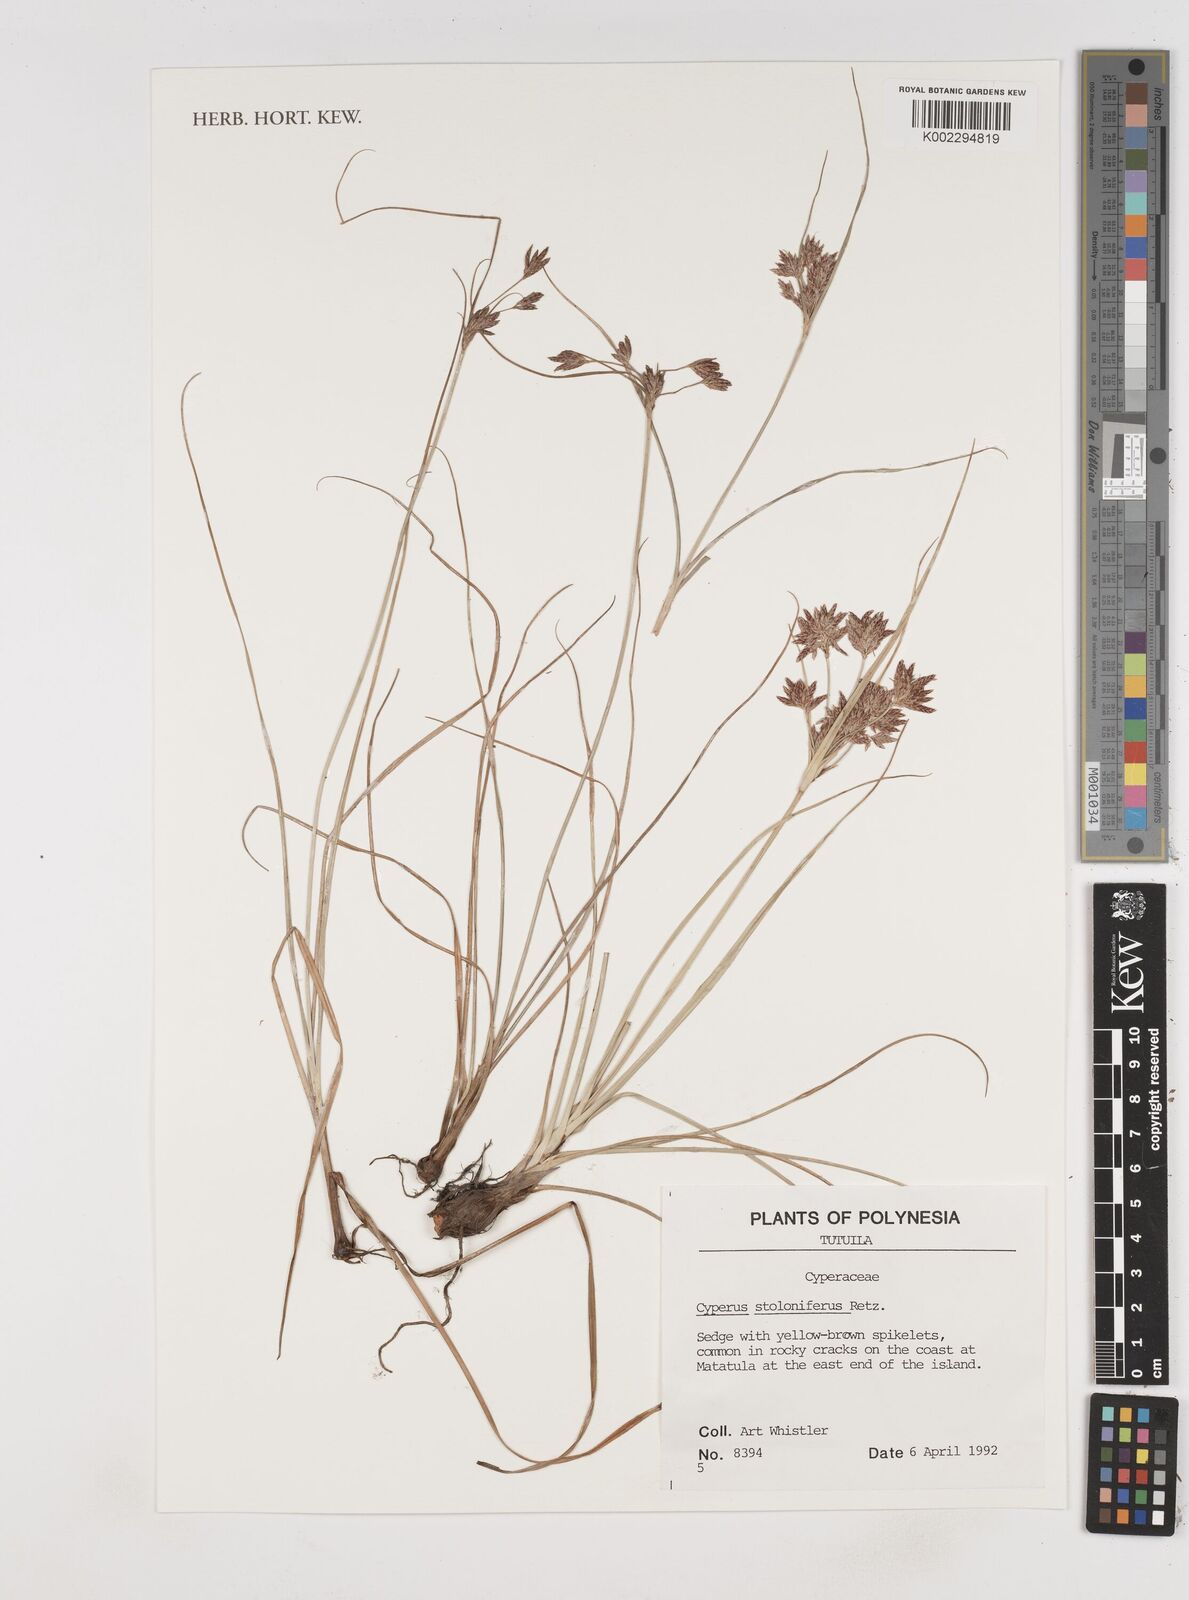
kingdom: Plantae
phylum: Tracheophyta
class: Liliopsida
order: Poales
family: Cyperaceae
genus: Cyperus
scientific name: Cyperus stolonifer
